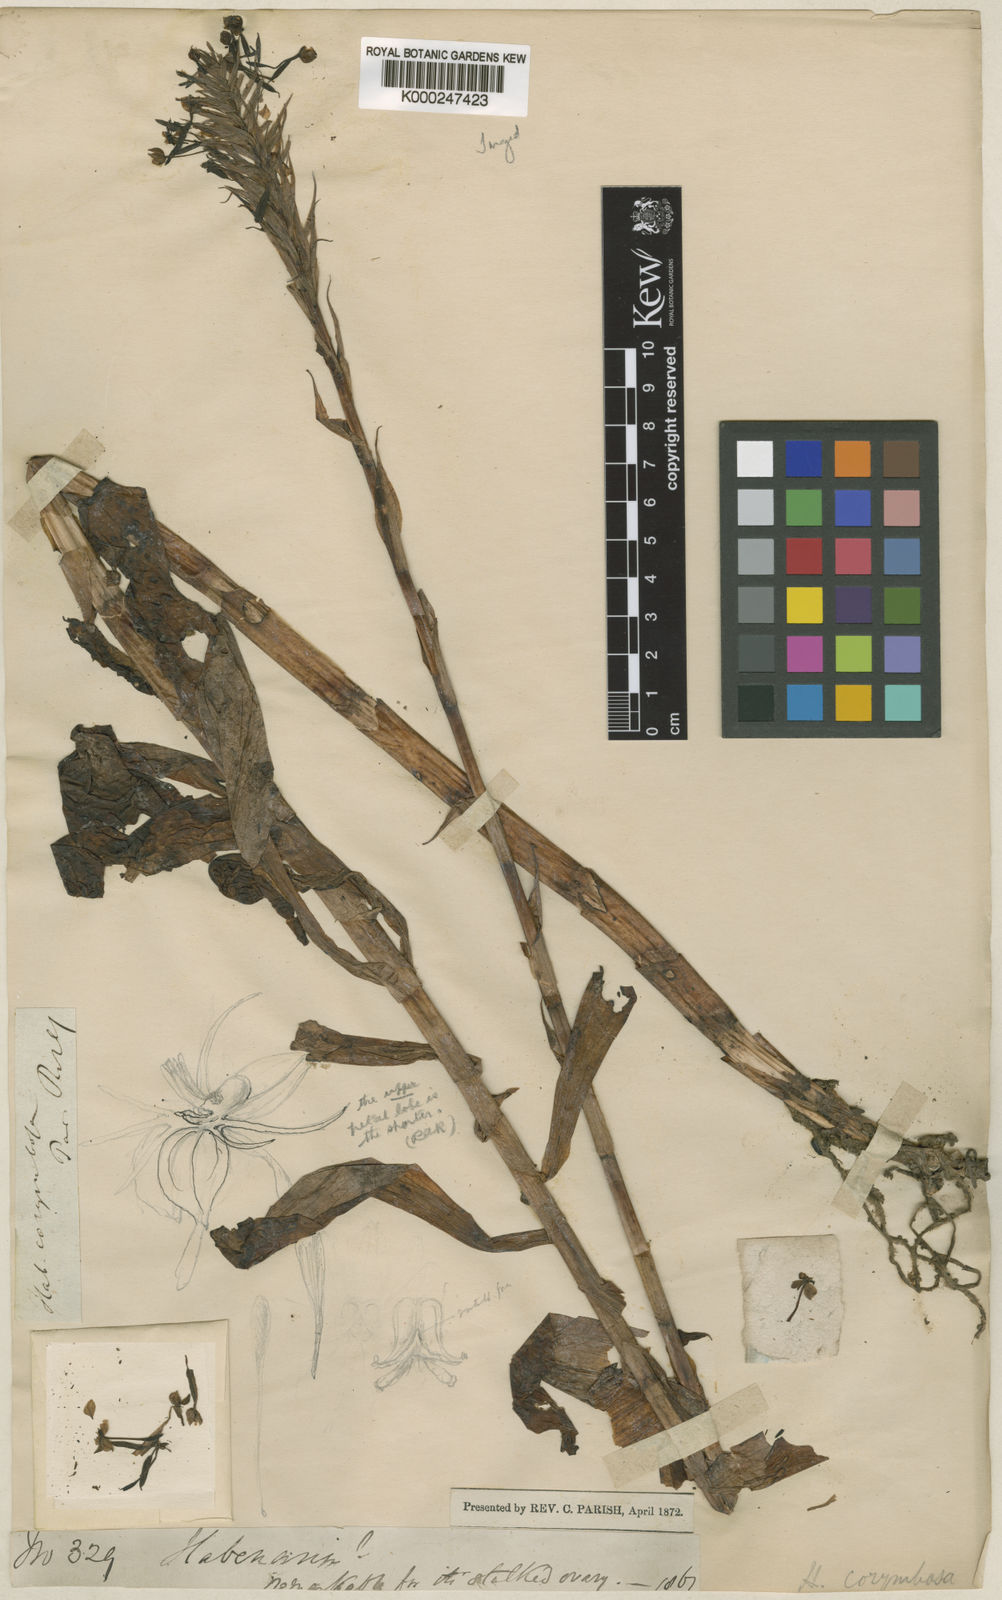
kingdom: Plantae
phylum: Tracheophyta
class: Liliopsida
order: Asparagales
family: Orchidaceae
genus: Habenaria
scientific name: Habenaria corymbosa
